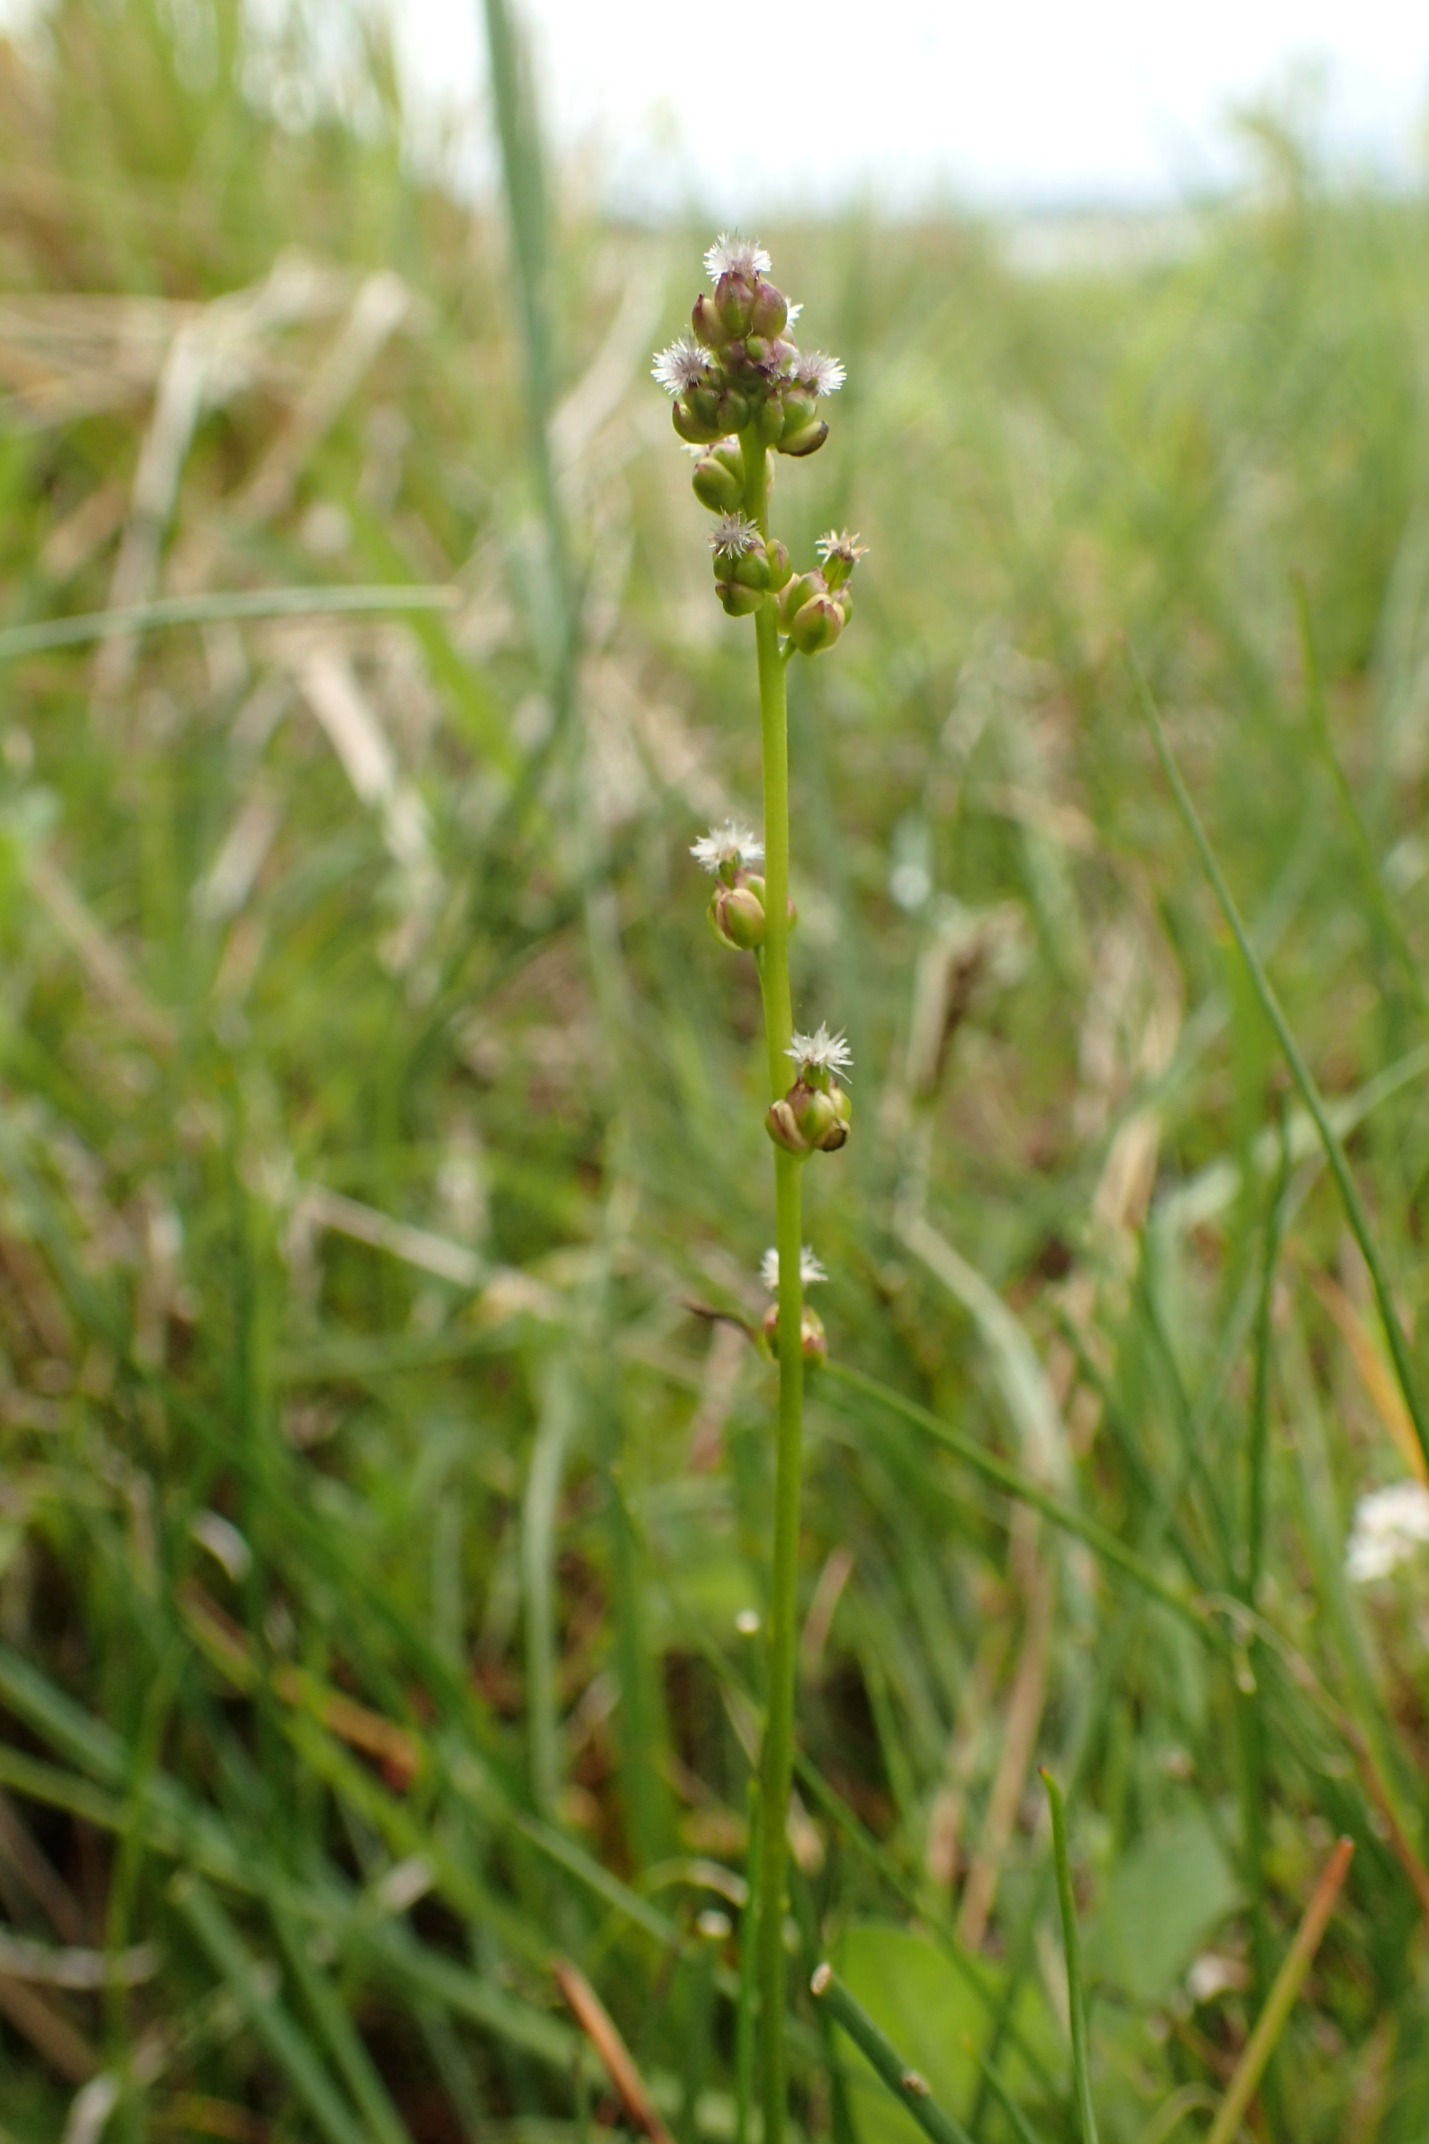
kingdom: Plantae
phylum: Tracheophyta
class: Liliopsida
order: Alismatales
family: Juncaginaceae
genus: Triglochin
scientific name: Triglochin palustris
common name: Kær-trehage
